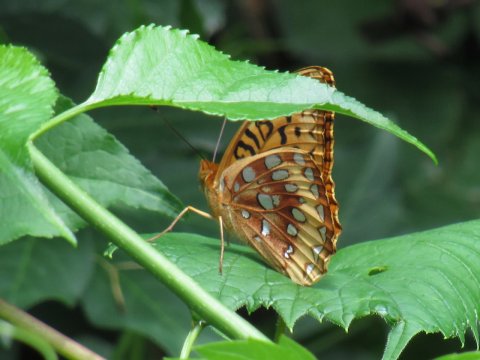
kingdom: Animalia
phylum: Arthropoda
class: Insecta
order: Lepidoptera
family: Nymphalidae
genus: Speyeria
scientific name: Speyeria cybele
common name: Great Spangled Fritillary
